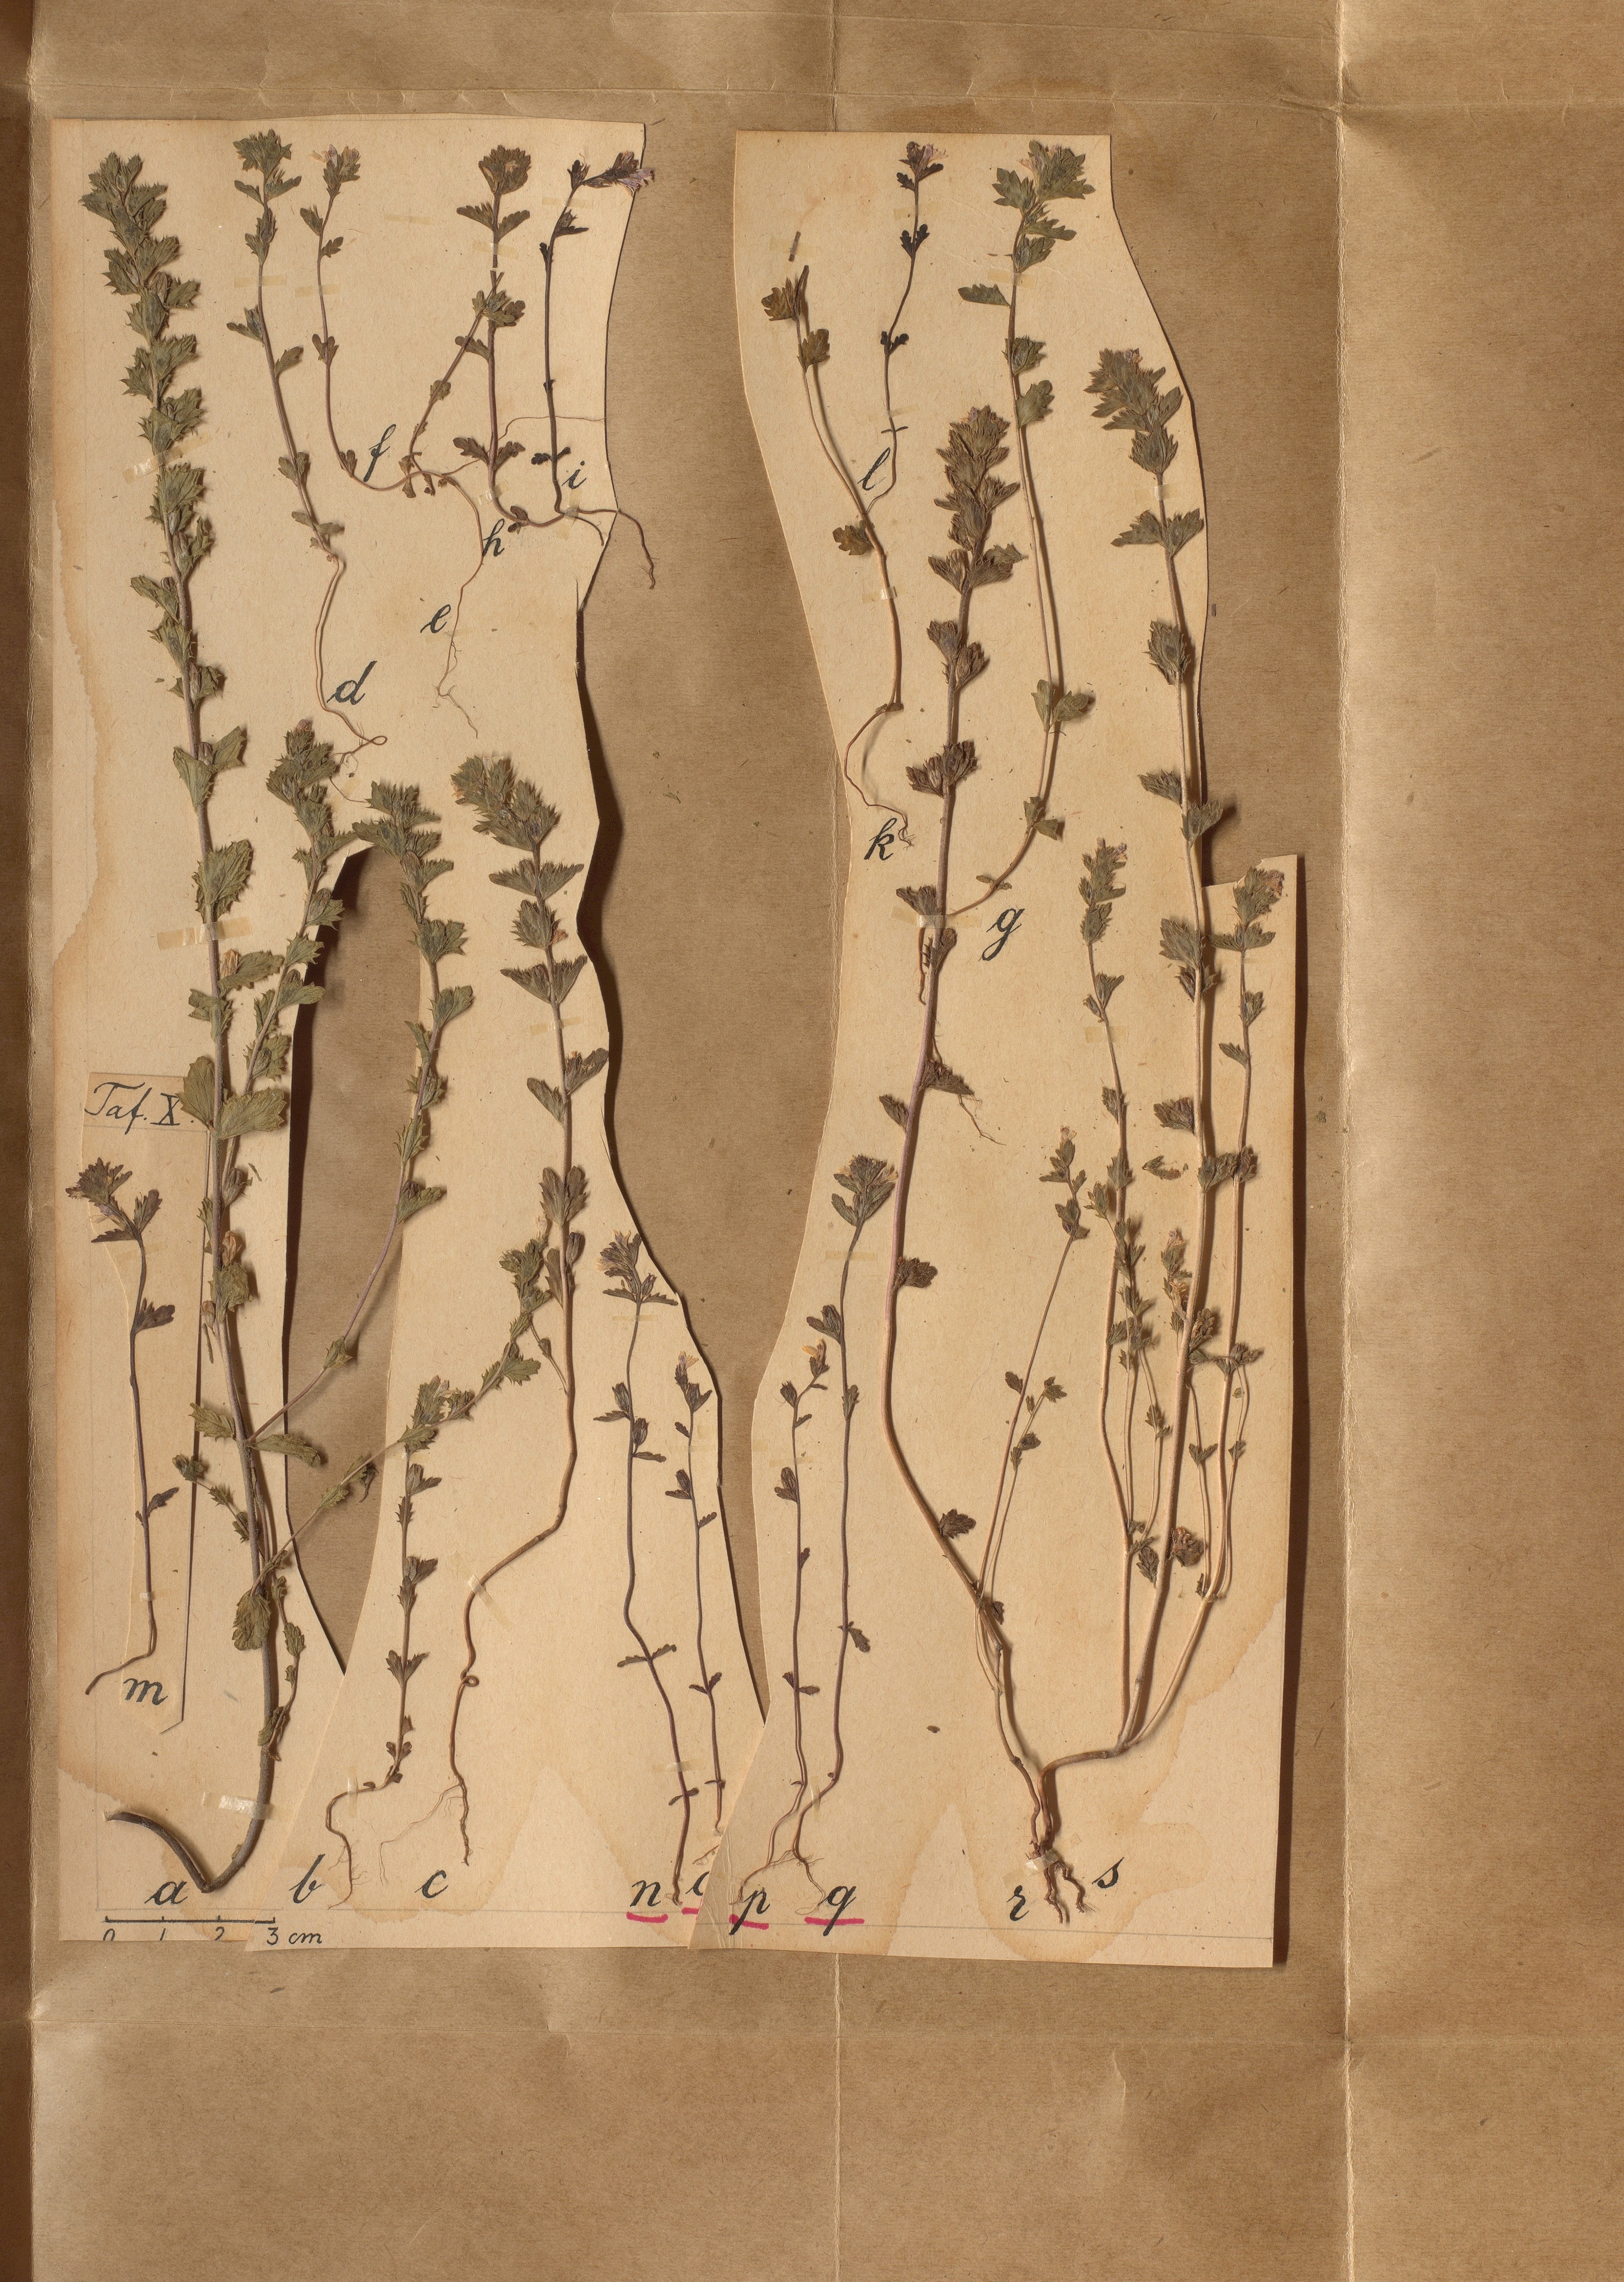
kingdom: Plantae
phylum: Tracheophyta
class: Magnoliopsida
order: Lamiales
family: Orobanchaceae
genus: Euphrasia
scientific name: Euphrasia wettsteinii
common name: Wettstein's eyebright
